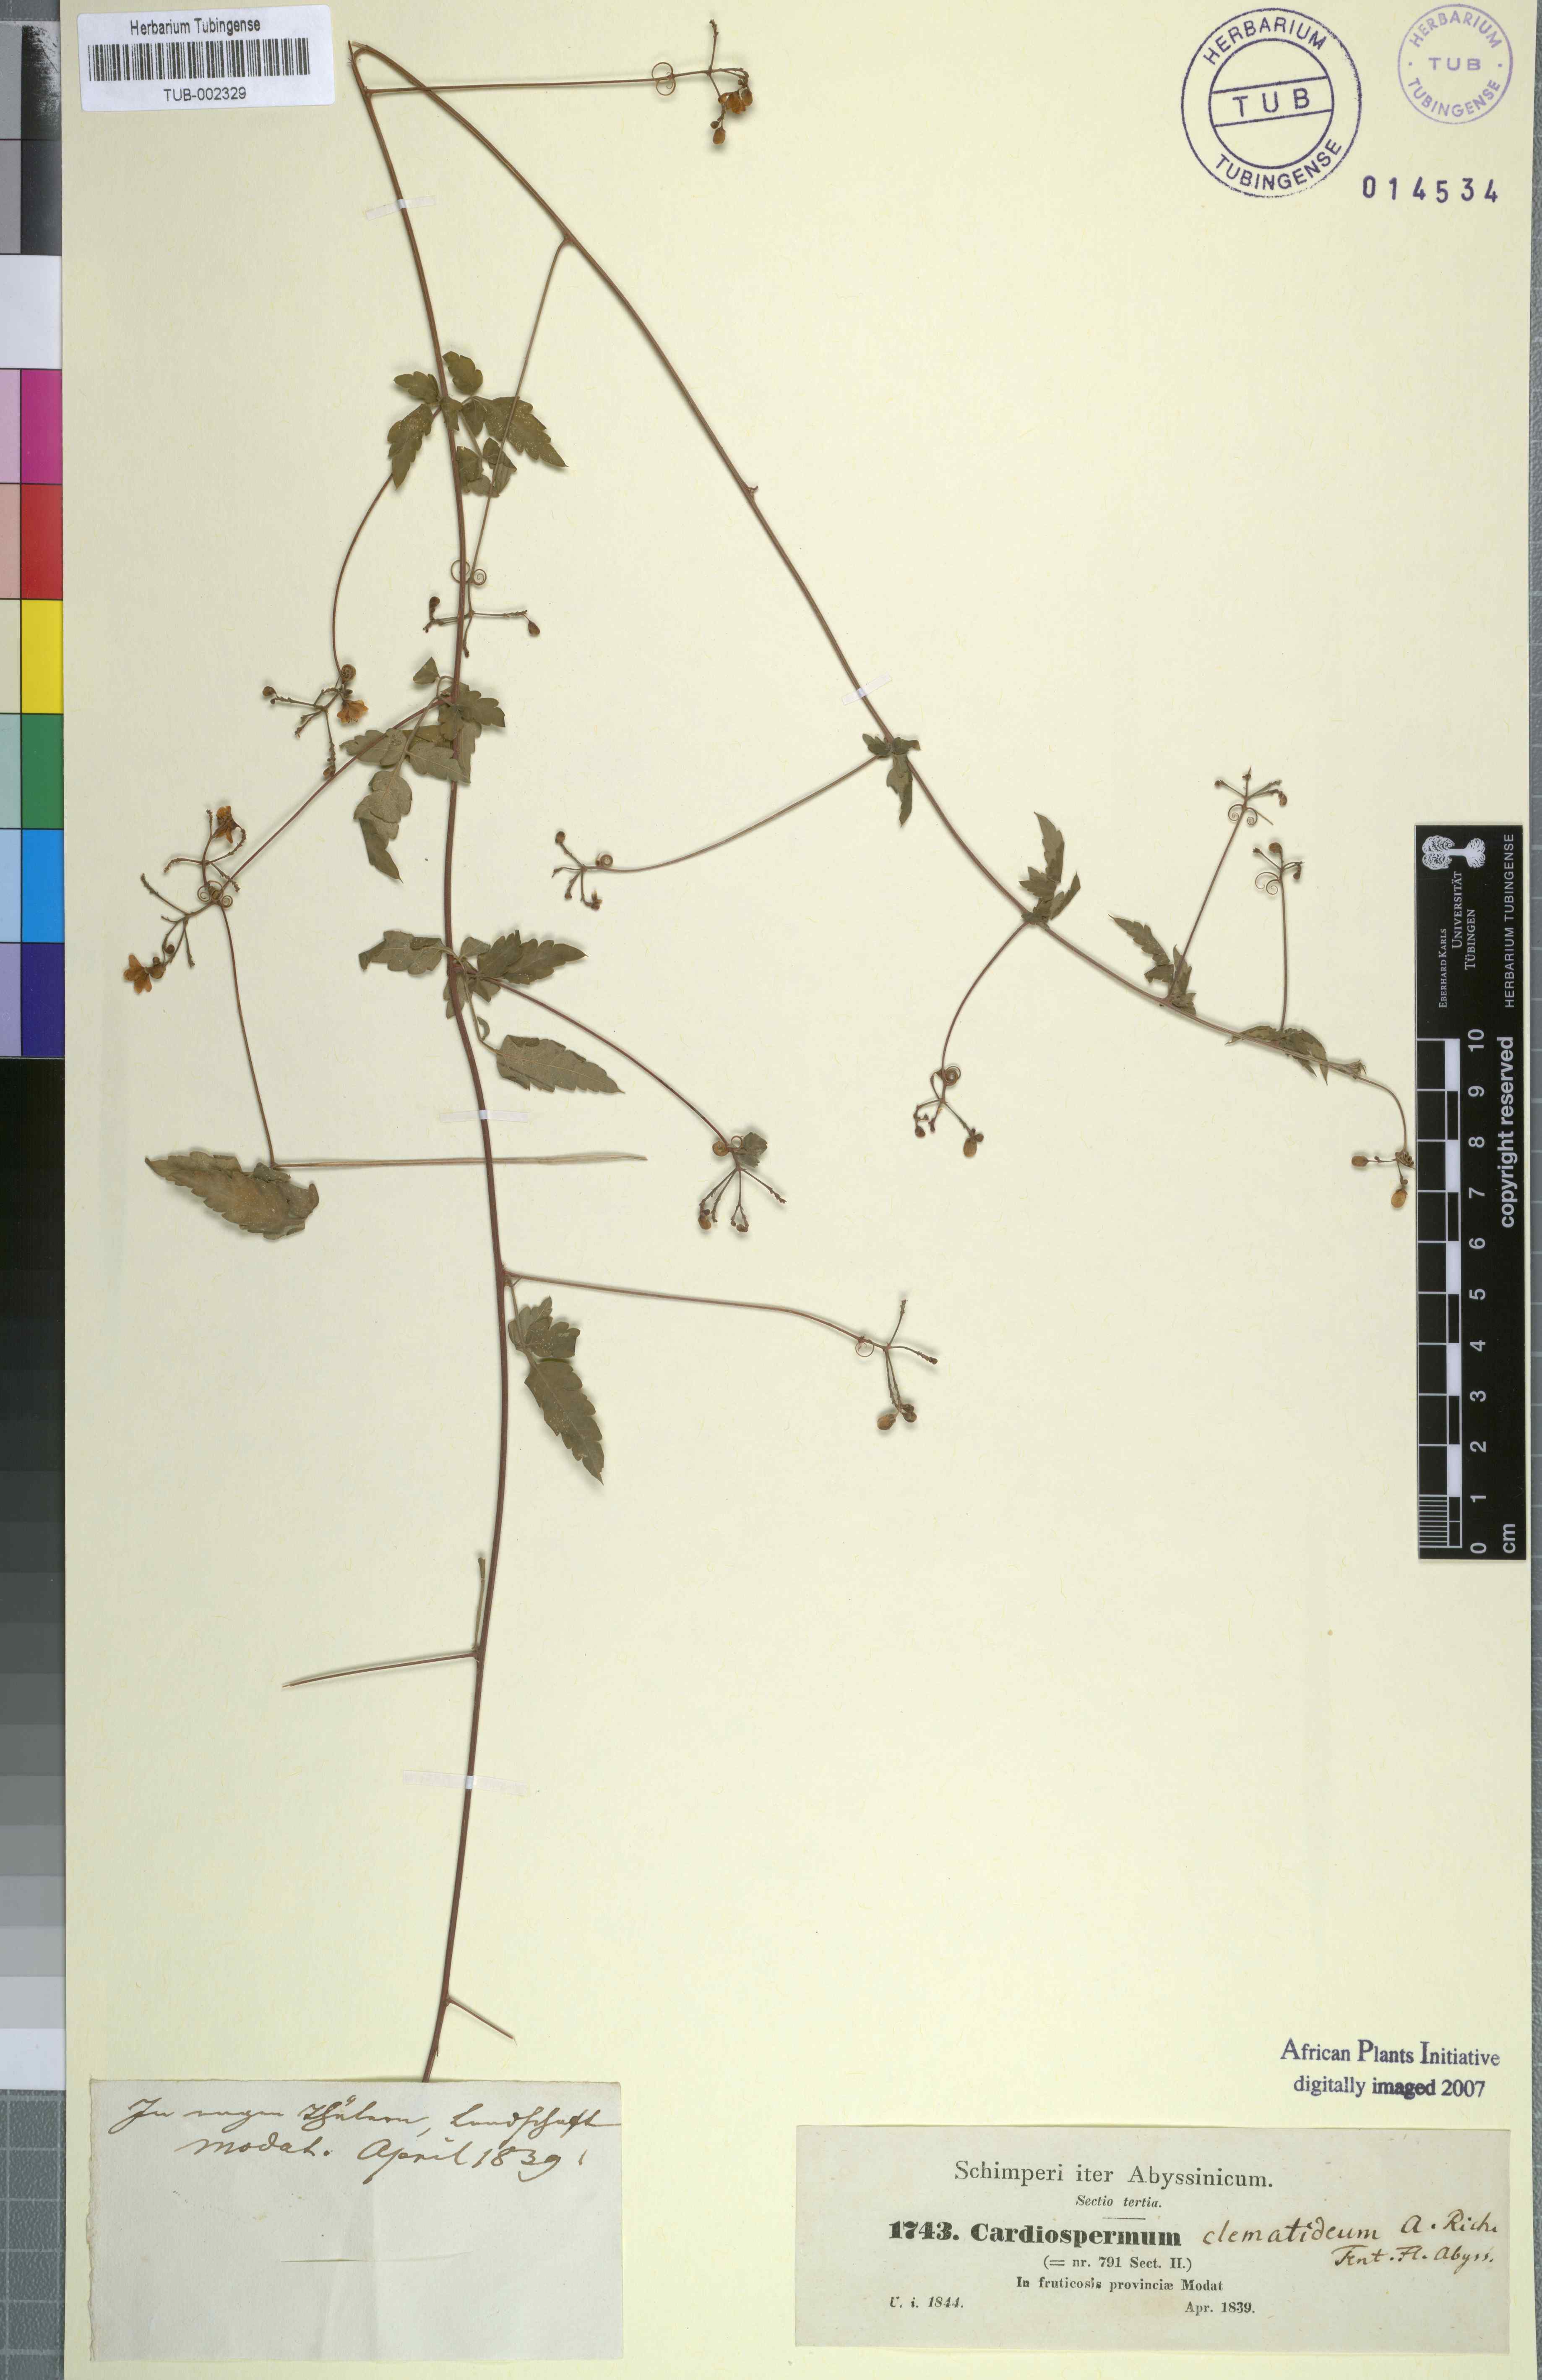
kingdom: Plantae
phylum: Tracheophyta
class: Magnoliopsida
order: Sapindales
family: Sapindaceae
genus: Cardiospermum
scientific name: Cardiospermum corindum
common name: Faux persil
